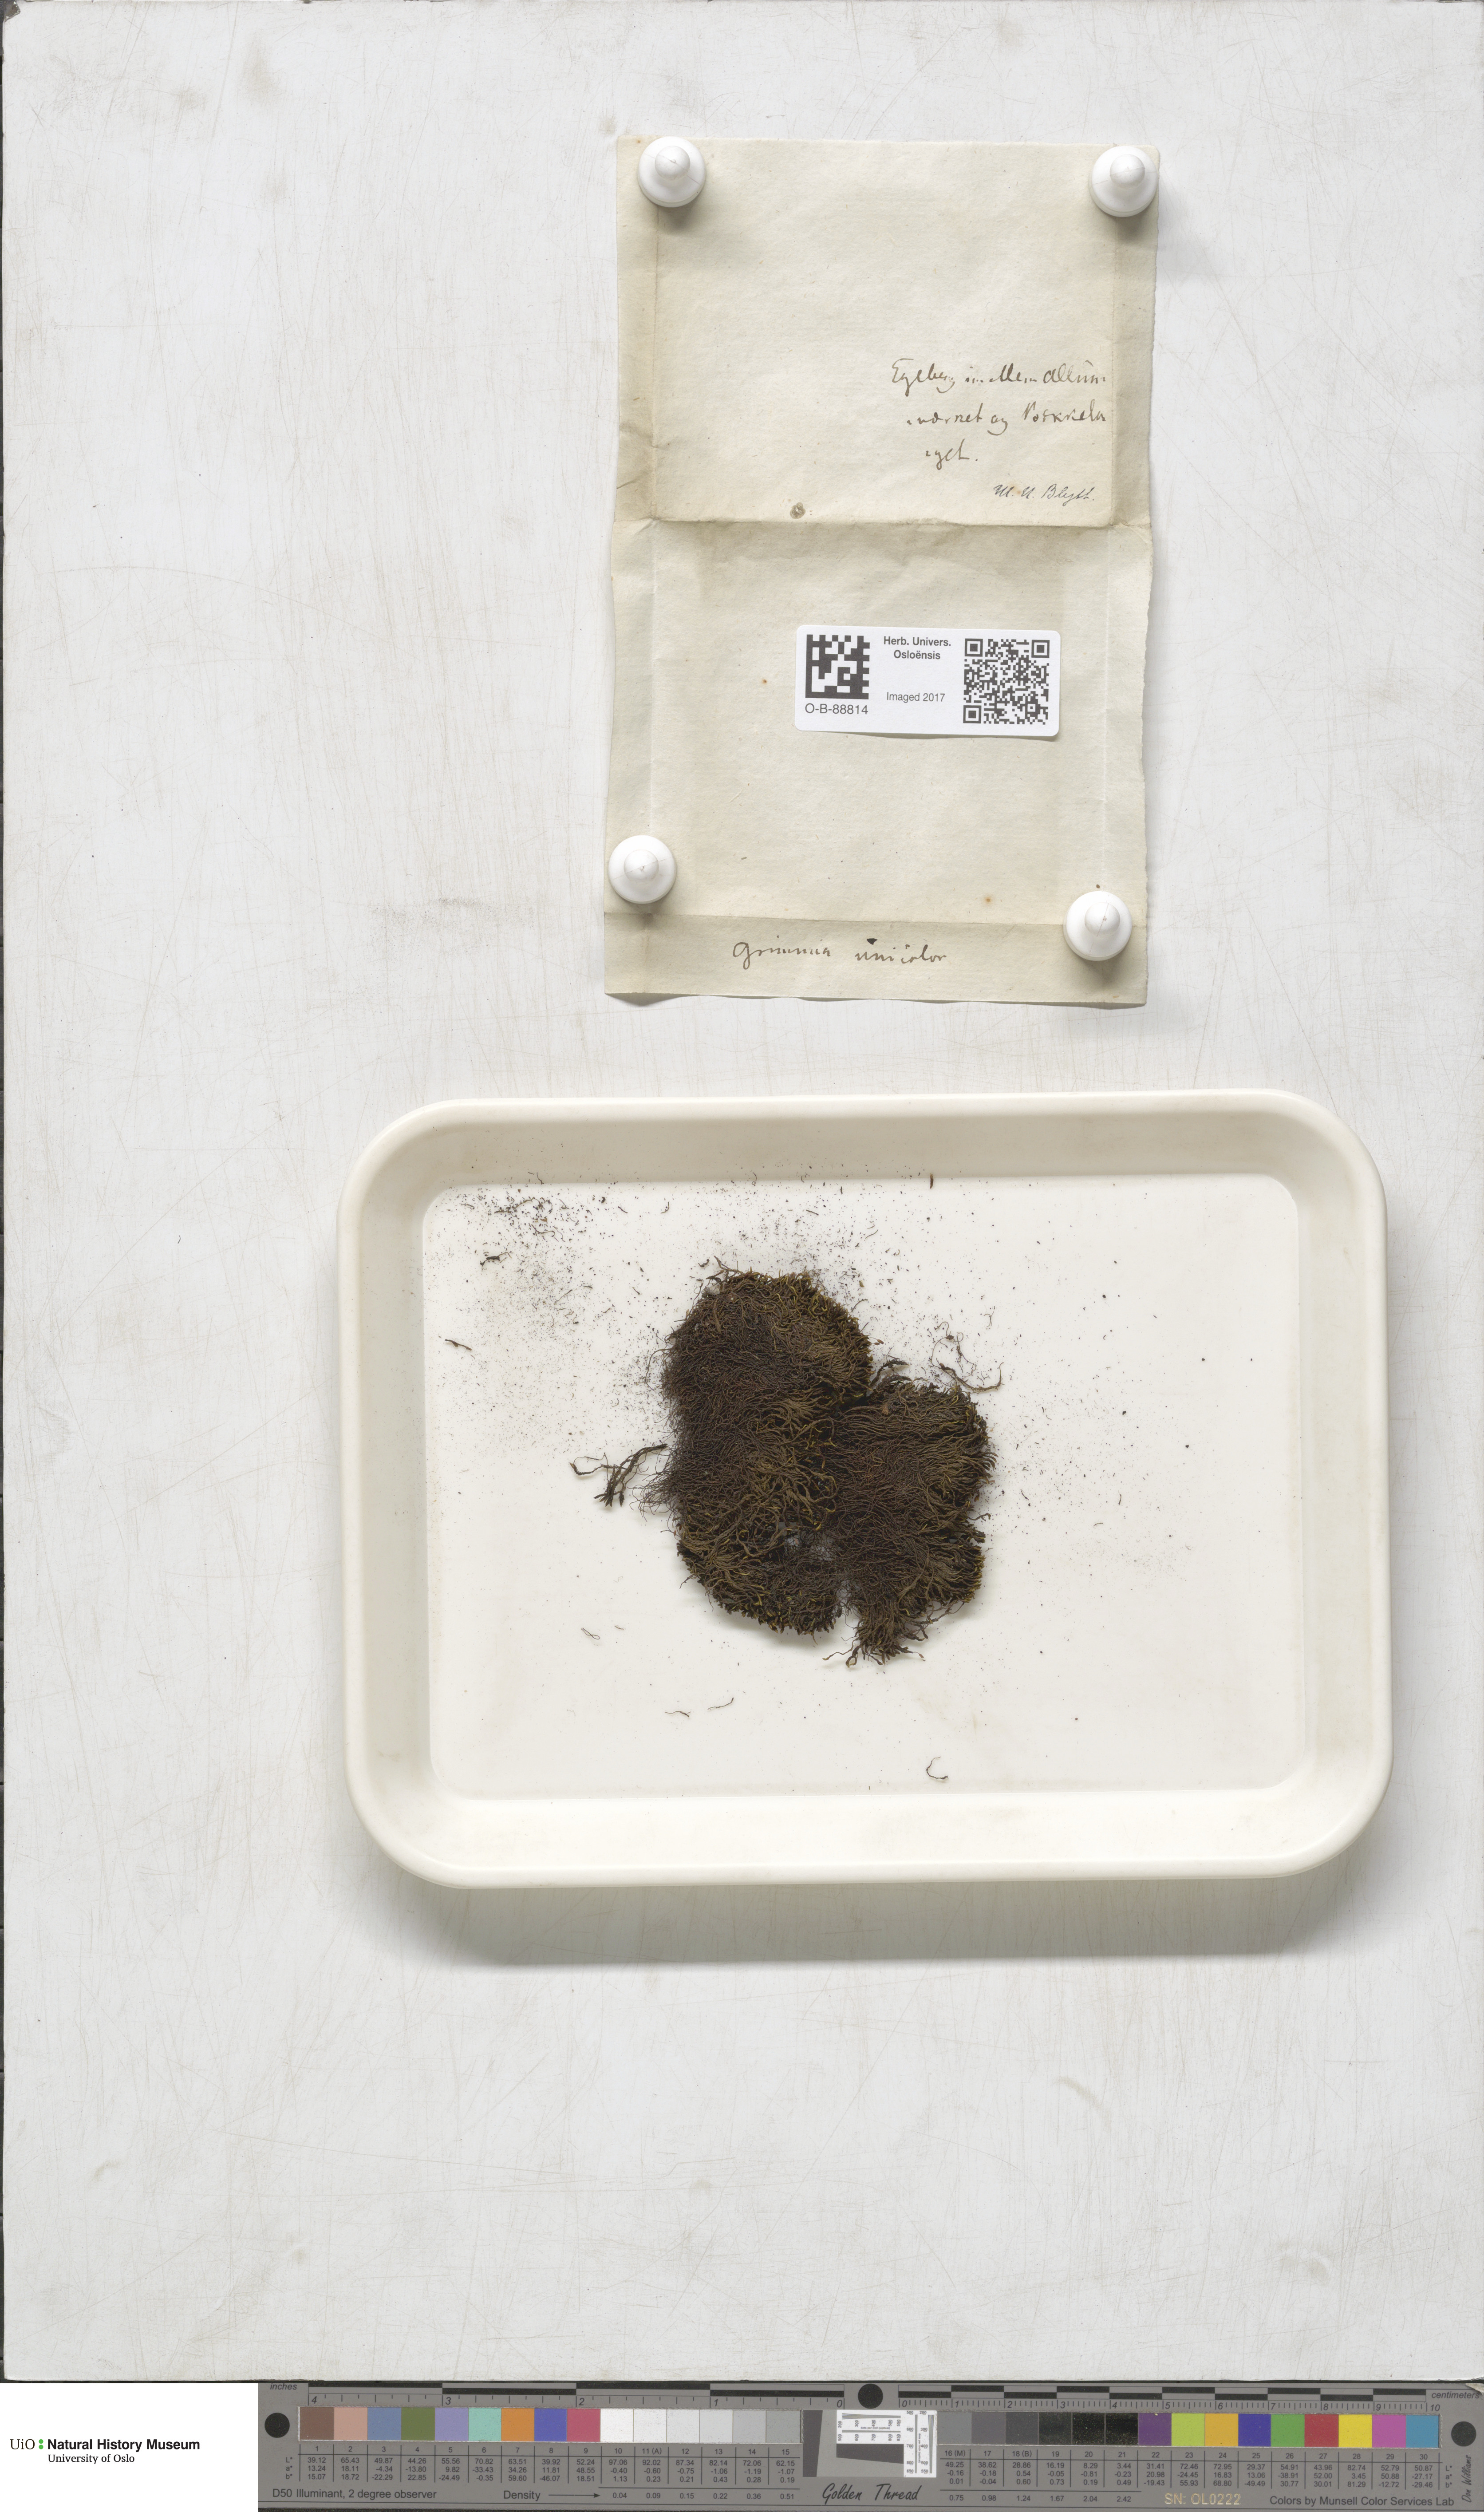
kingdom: Plantae
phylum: Bryophyta
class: Bryopsida
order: Grimmiales
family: Grimmiaceae
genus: Grimmia
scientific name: Grimmia unicolor
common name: Dingy grimmia
